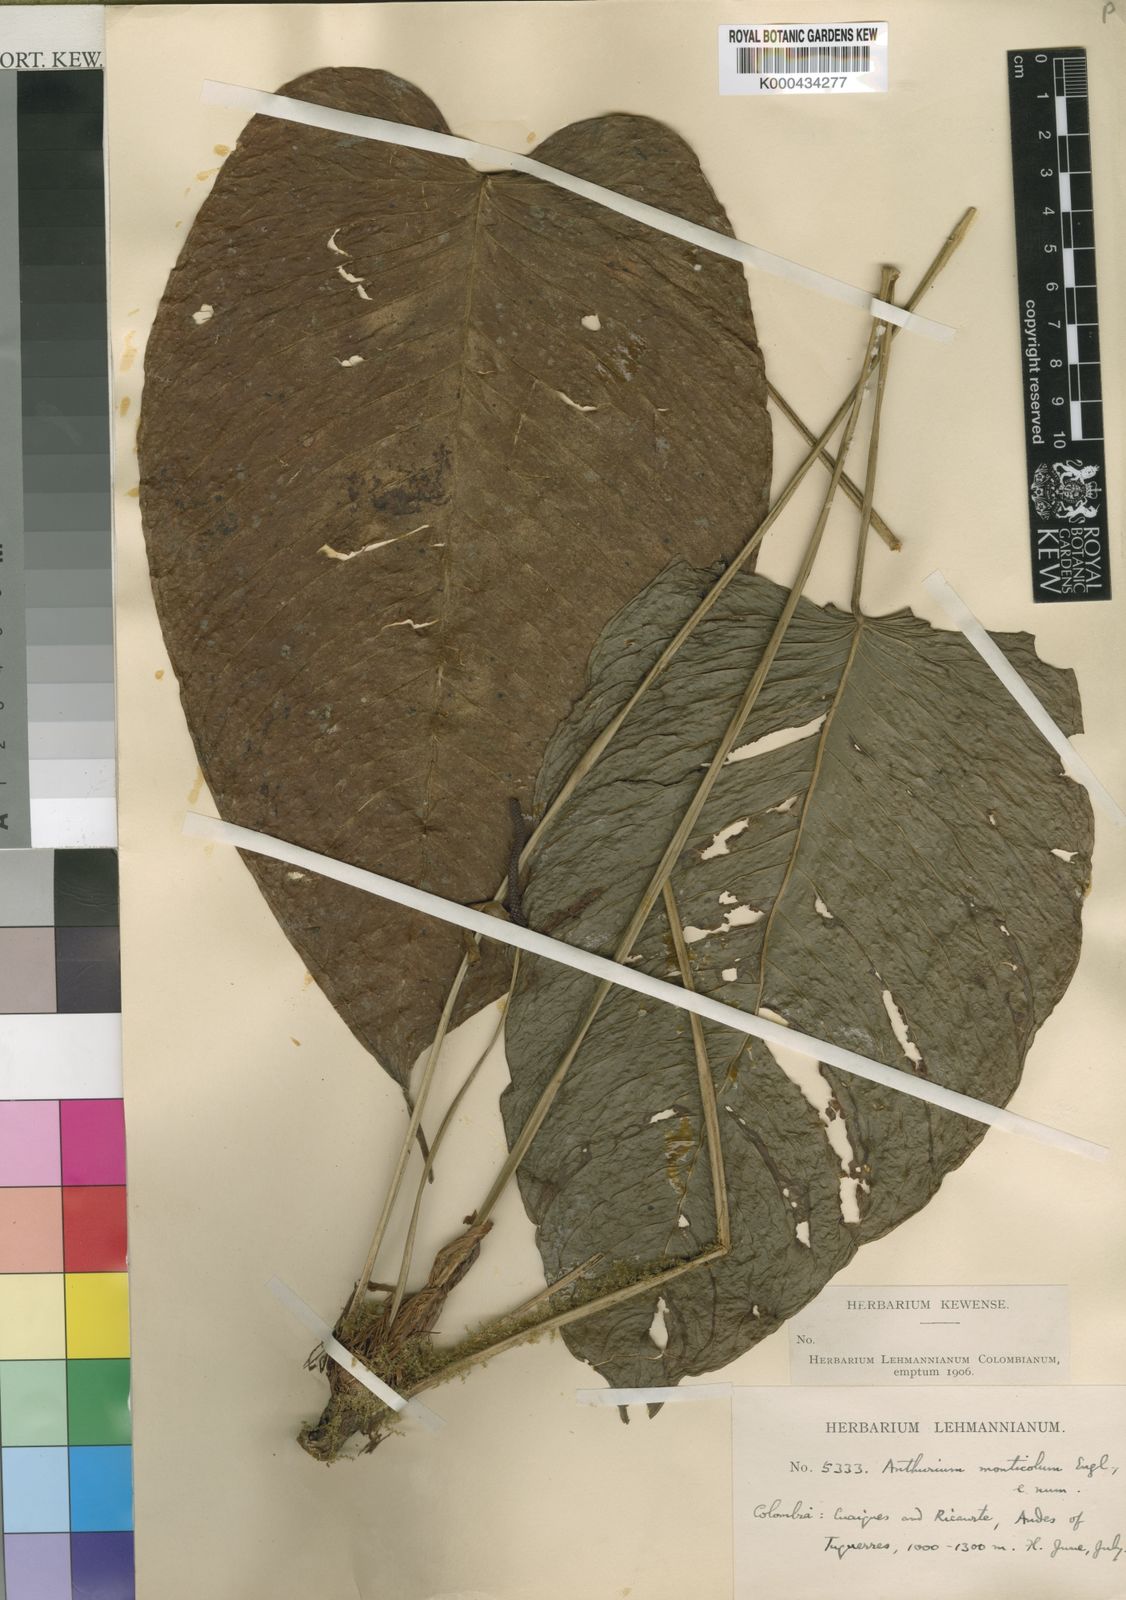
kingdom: Plantae
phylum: Tracheophyta
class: Liliopsida
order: Alismatales
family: Araceae
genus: Anthurium
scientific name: Anthurium monticola
